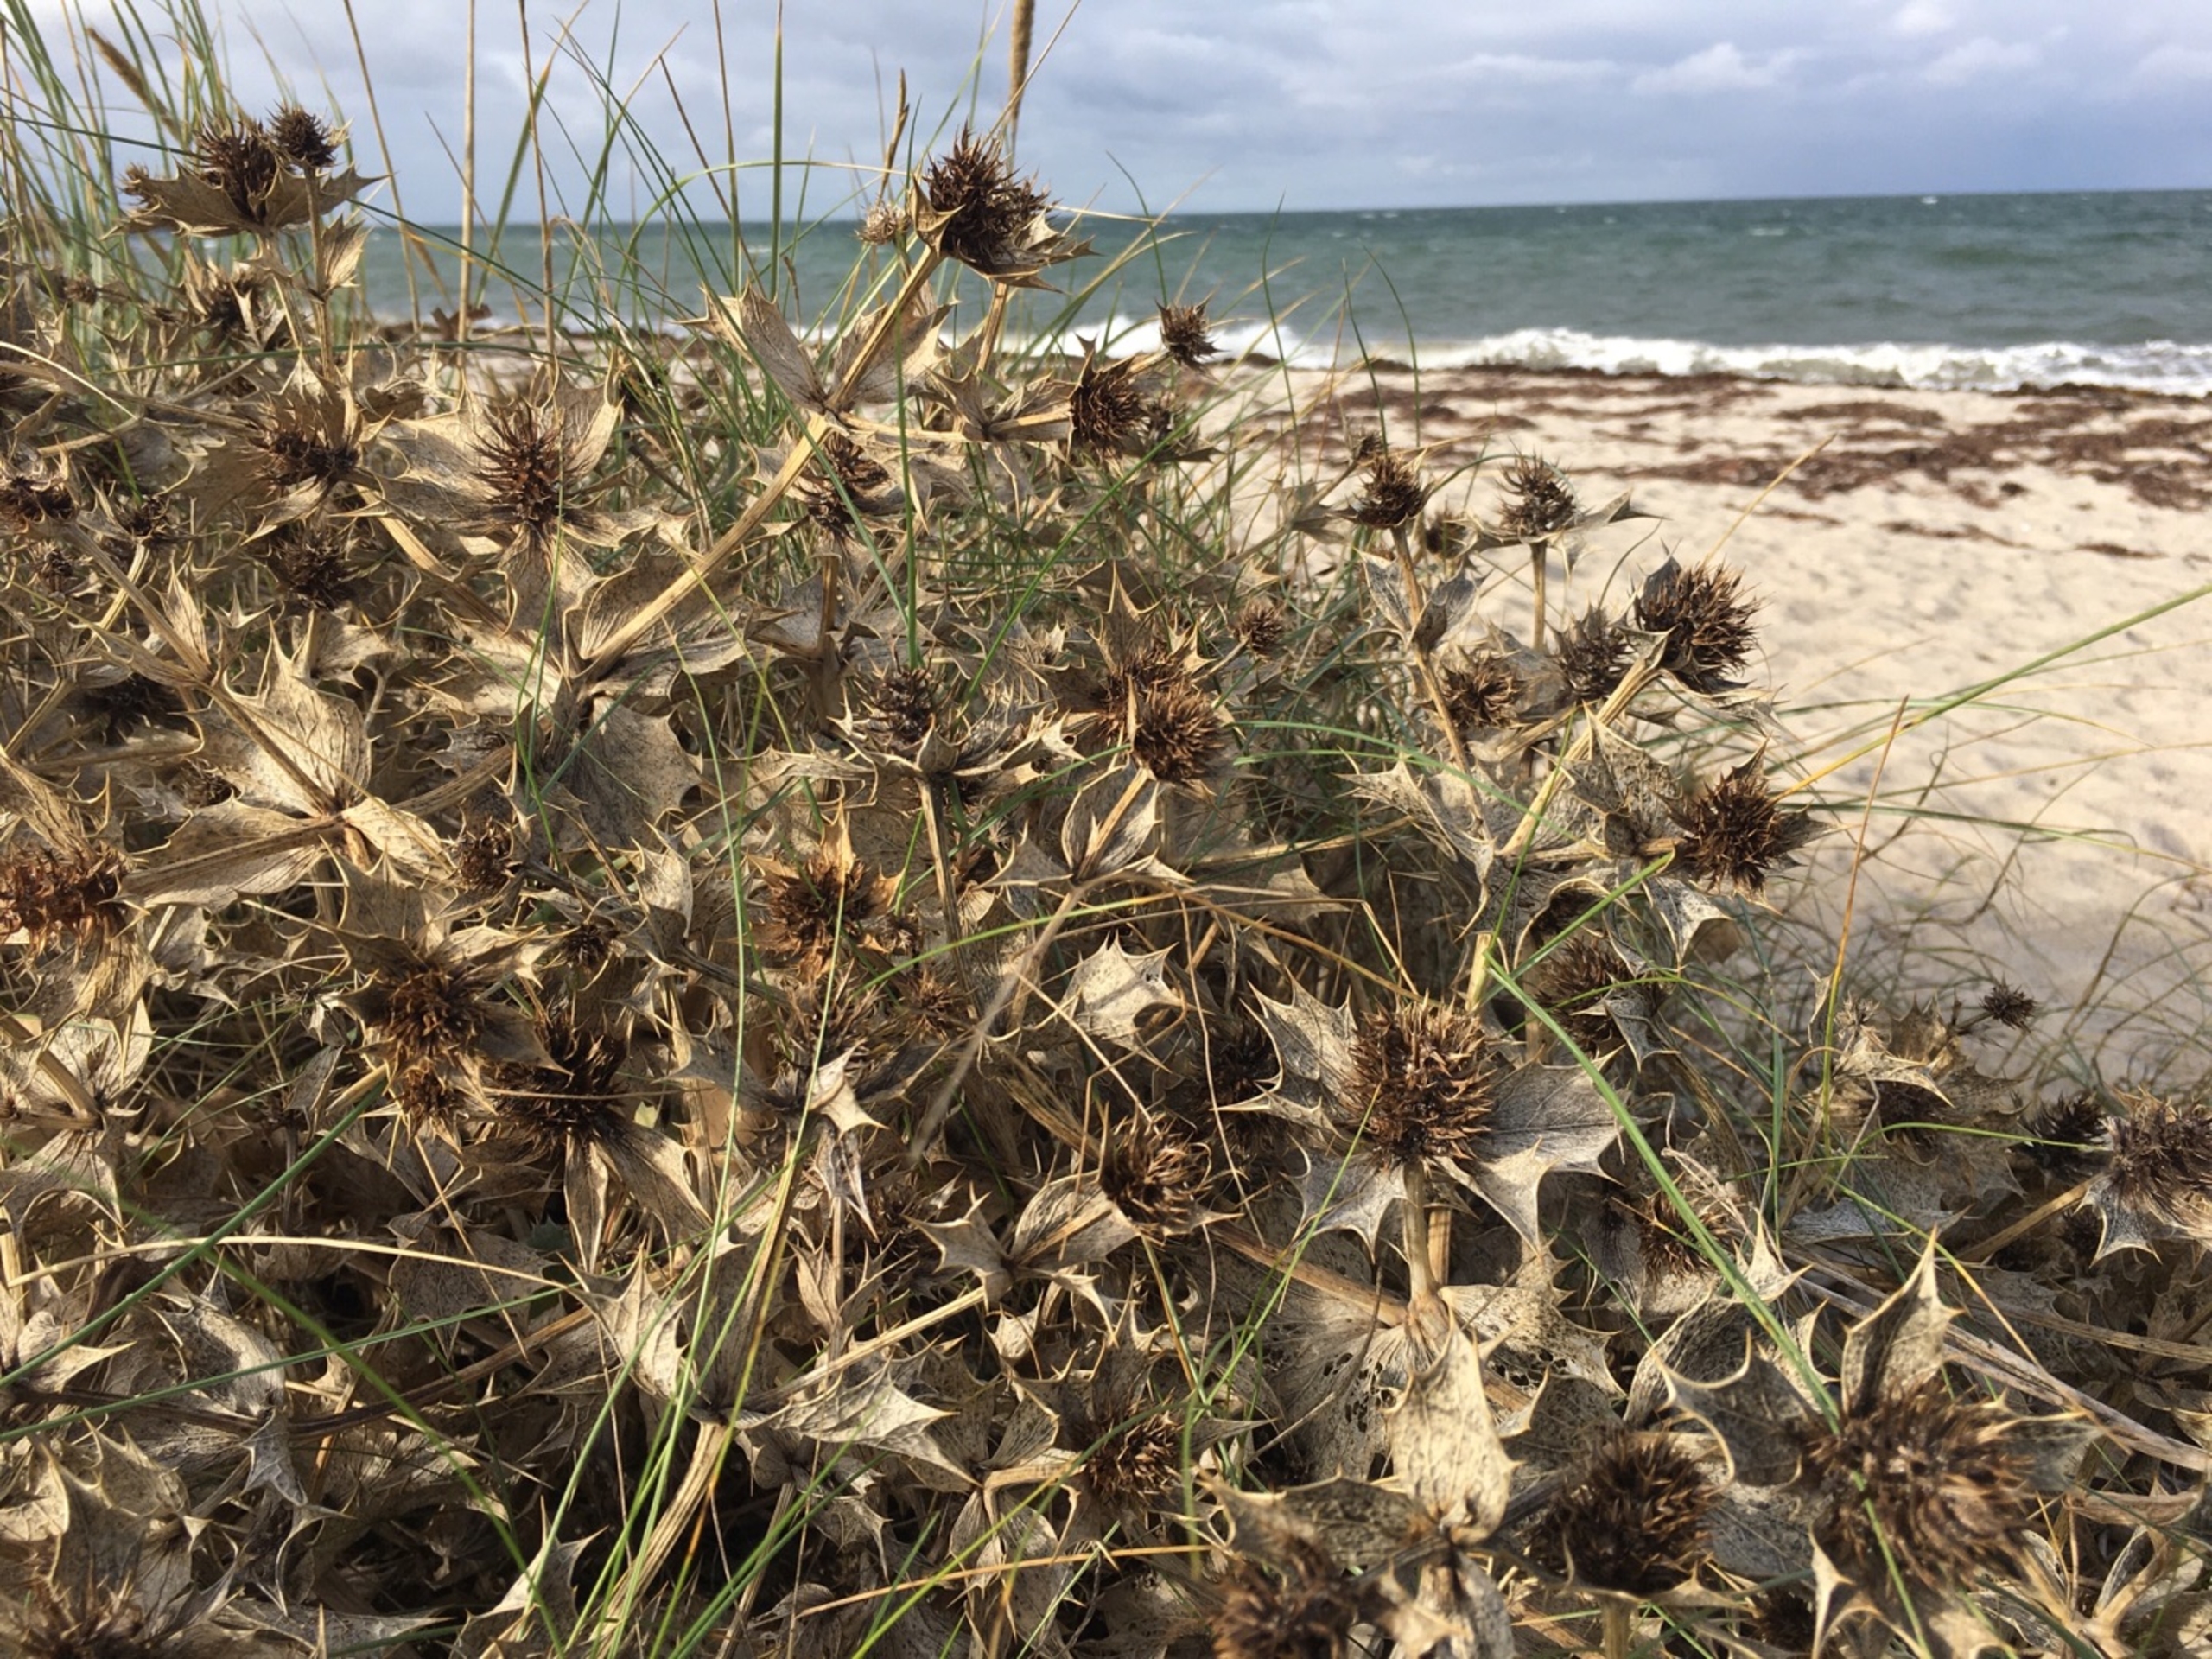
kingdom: Plantae
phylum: Tracheophyta
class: Magnoliopsida
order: Apiales
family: Apiaceae
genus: Eryngium
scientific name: Eryngium maritimum
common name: Strand-mandstro
